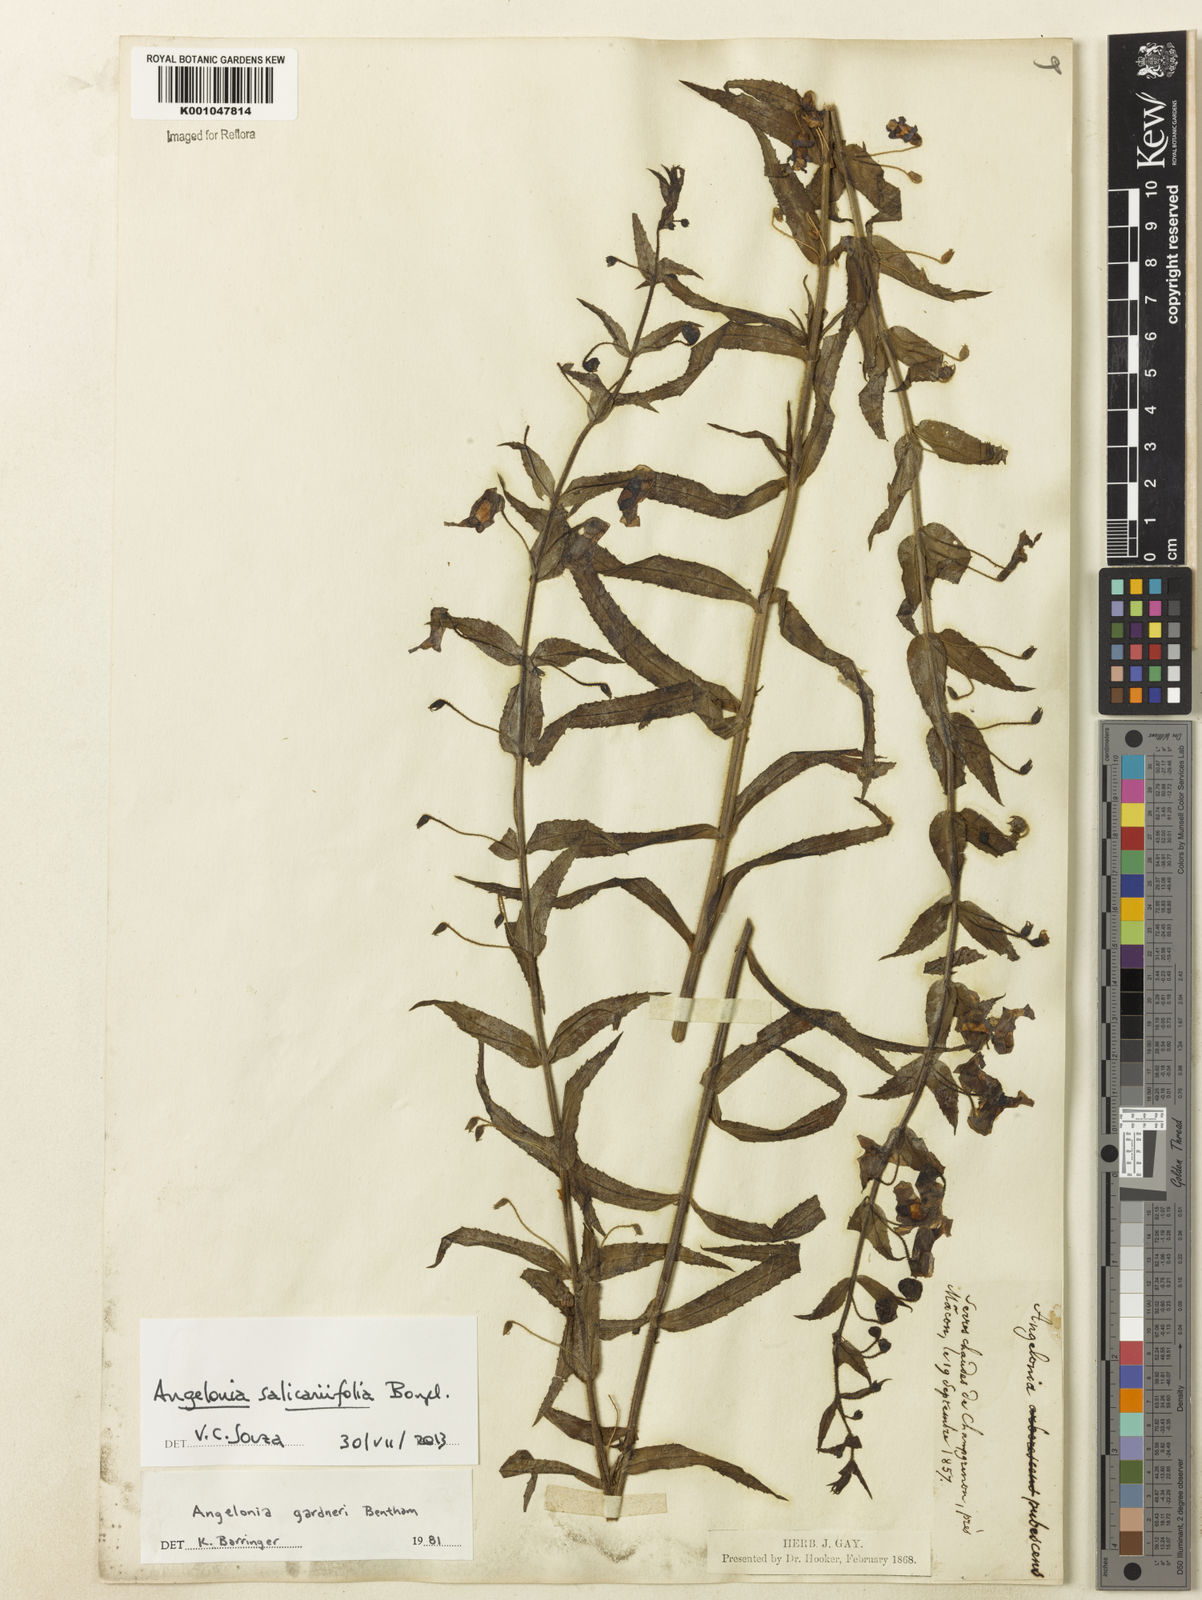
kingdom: Plantae
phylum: Tracheophyta
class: Magnoliopsida
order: Lamiales
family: Plantaginaceae
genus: Angelonia
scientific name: Angelonia salicariifolia
